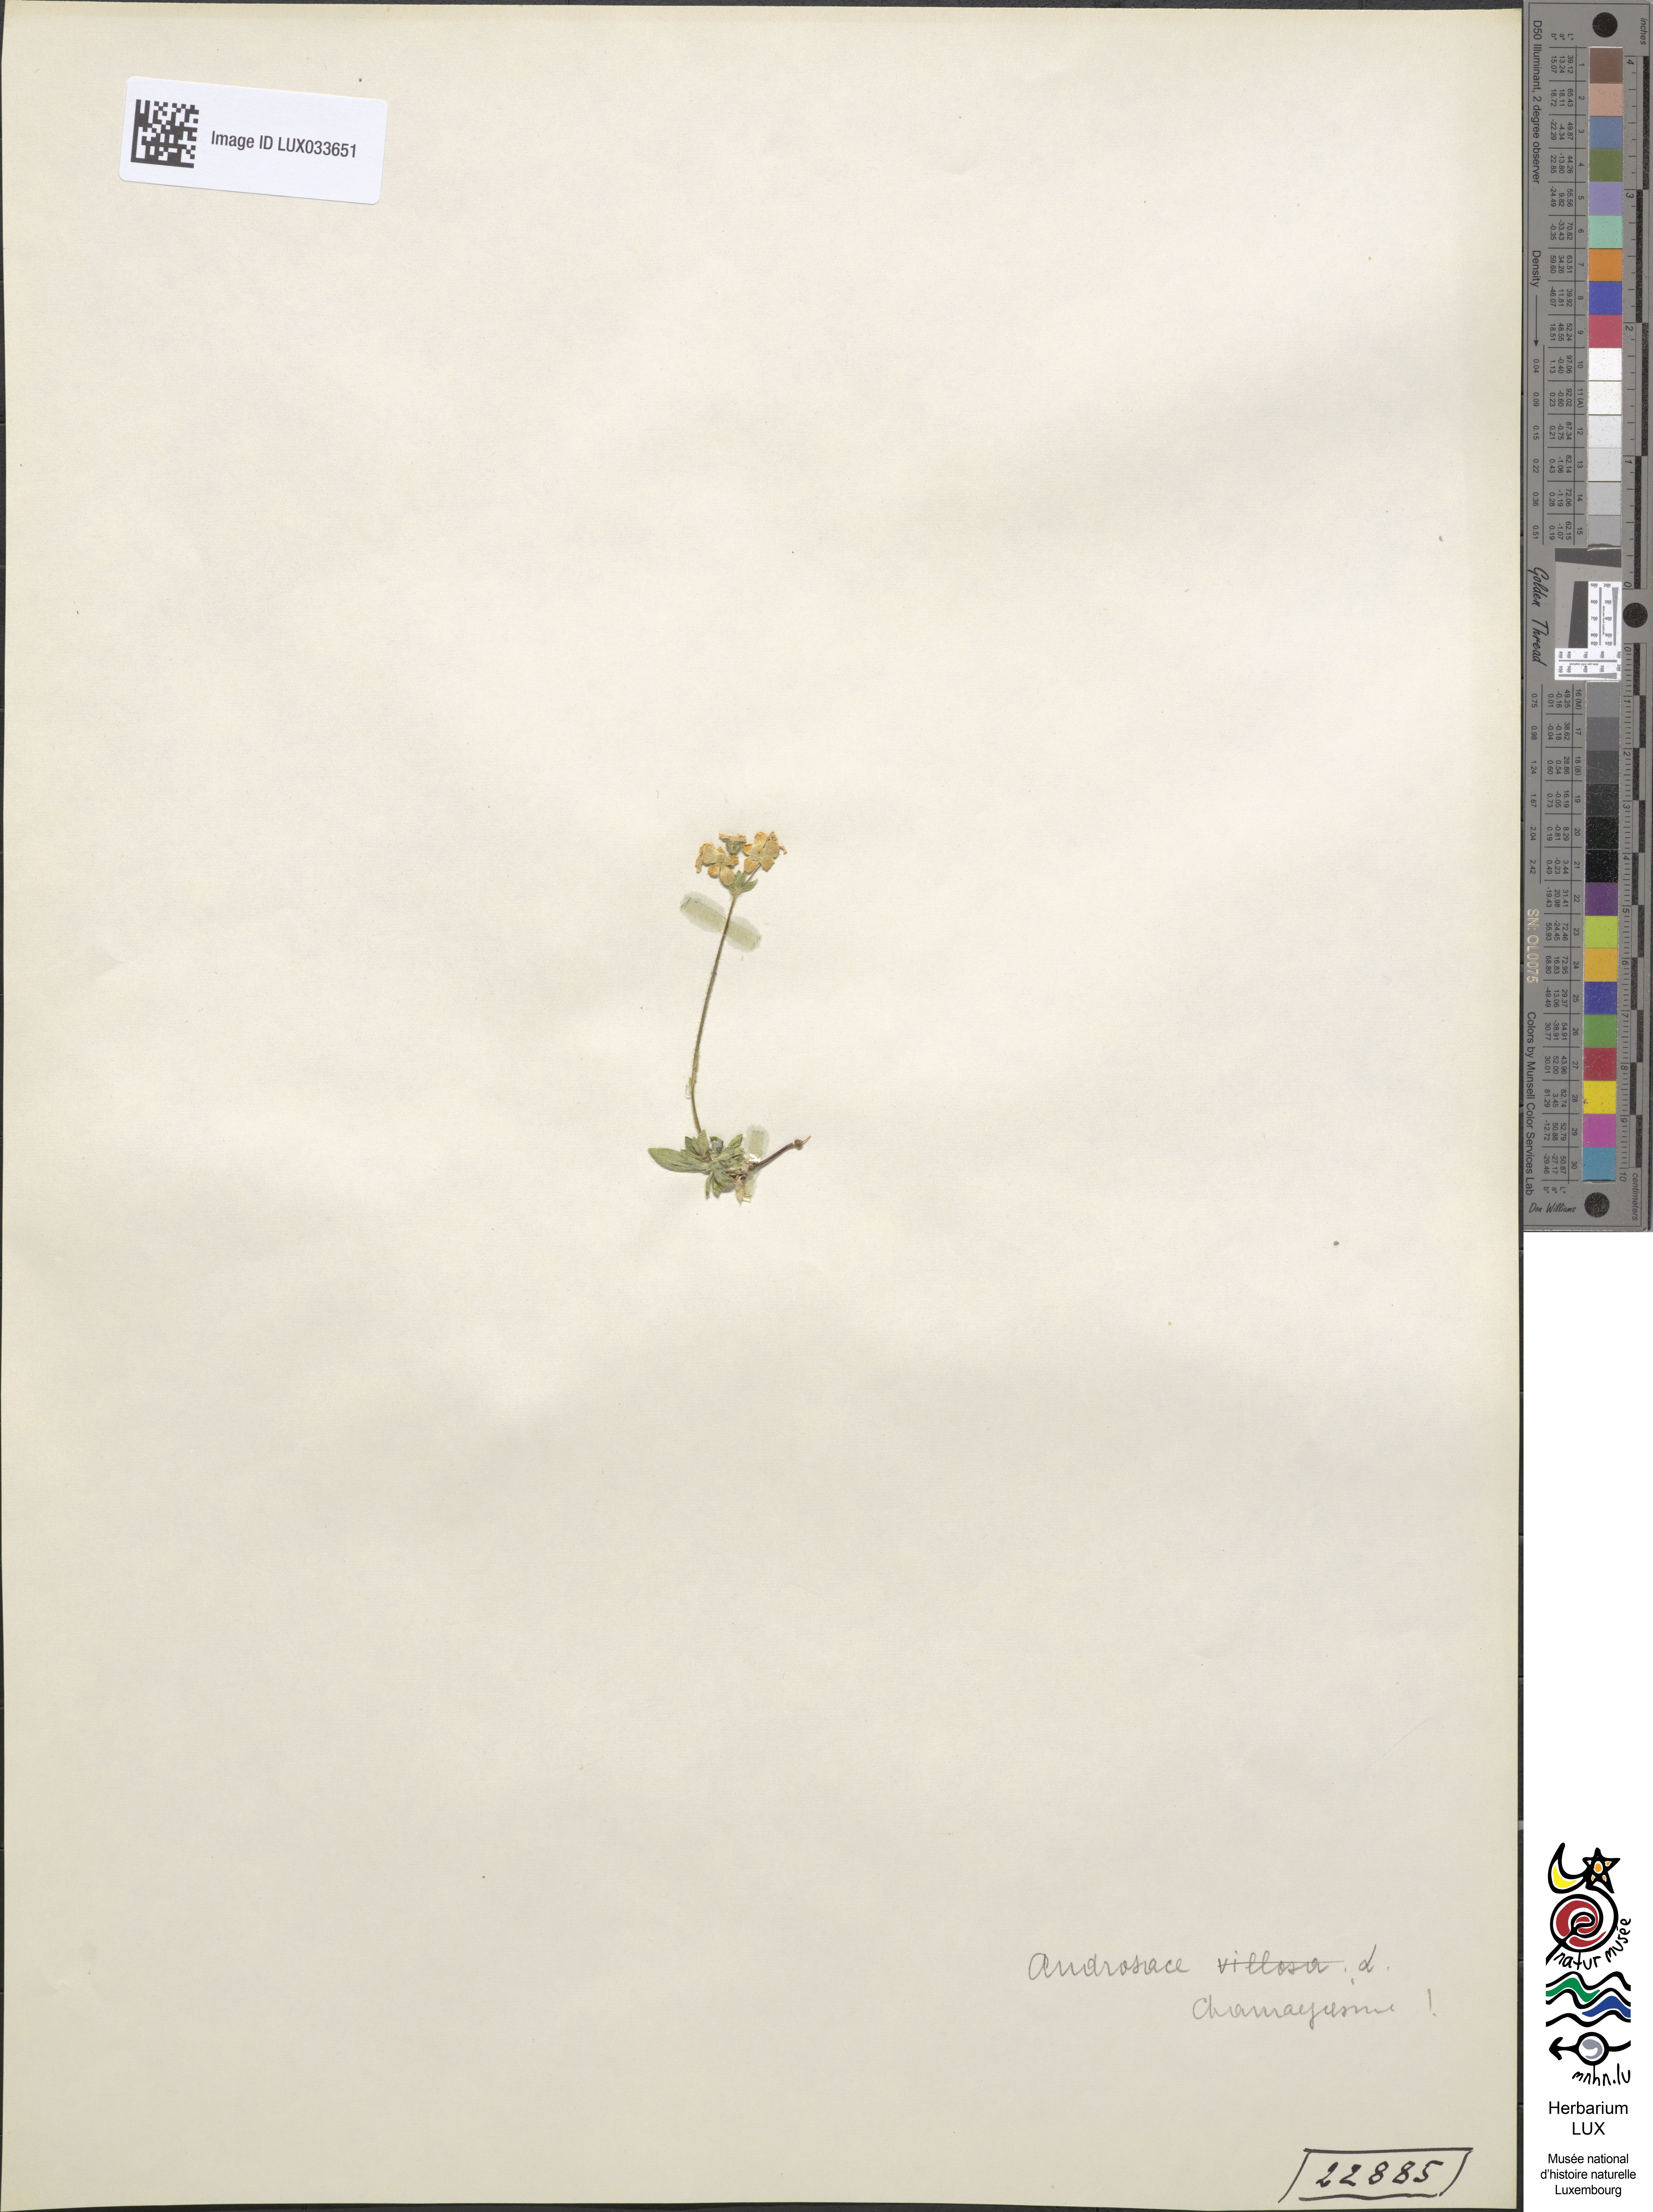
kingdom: Plantae
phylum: Tracheophyta
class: Magnoliopsida
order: Ericales
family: Primulaceae
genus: Androsace
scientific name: Androsace chamaejasme
